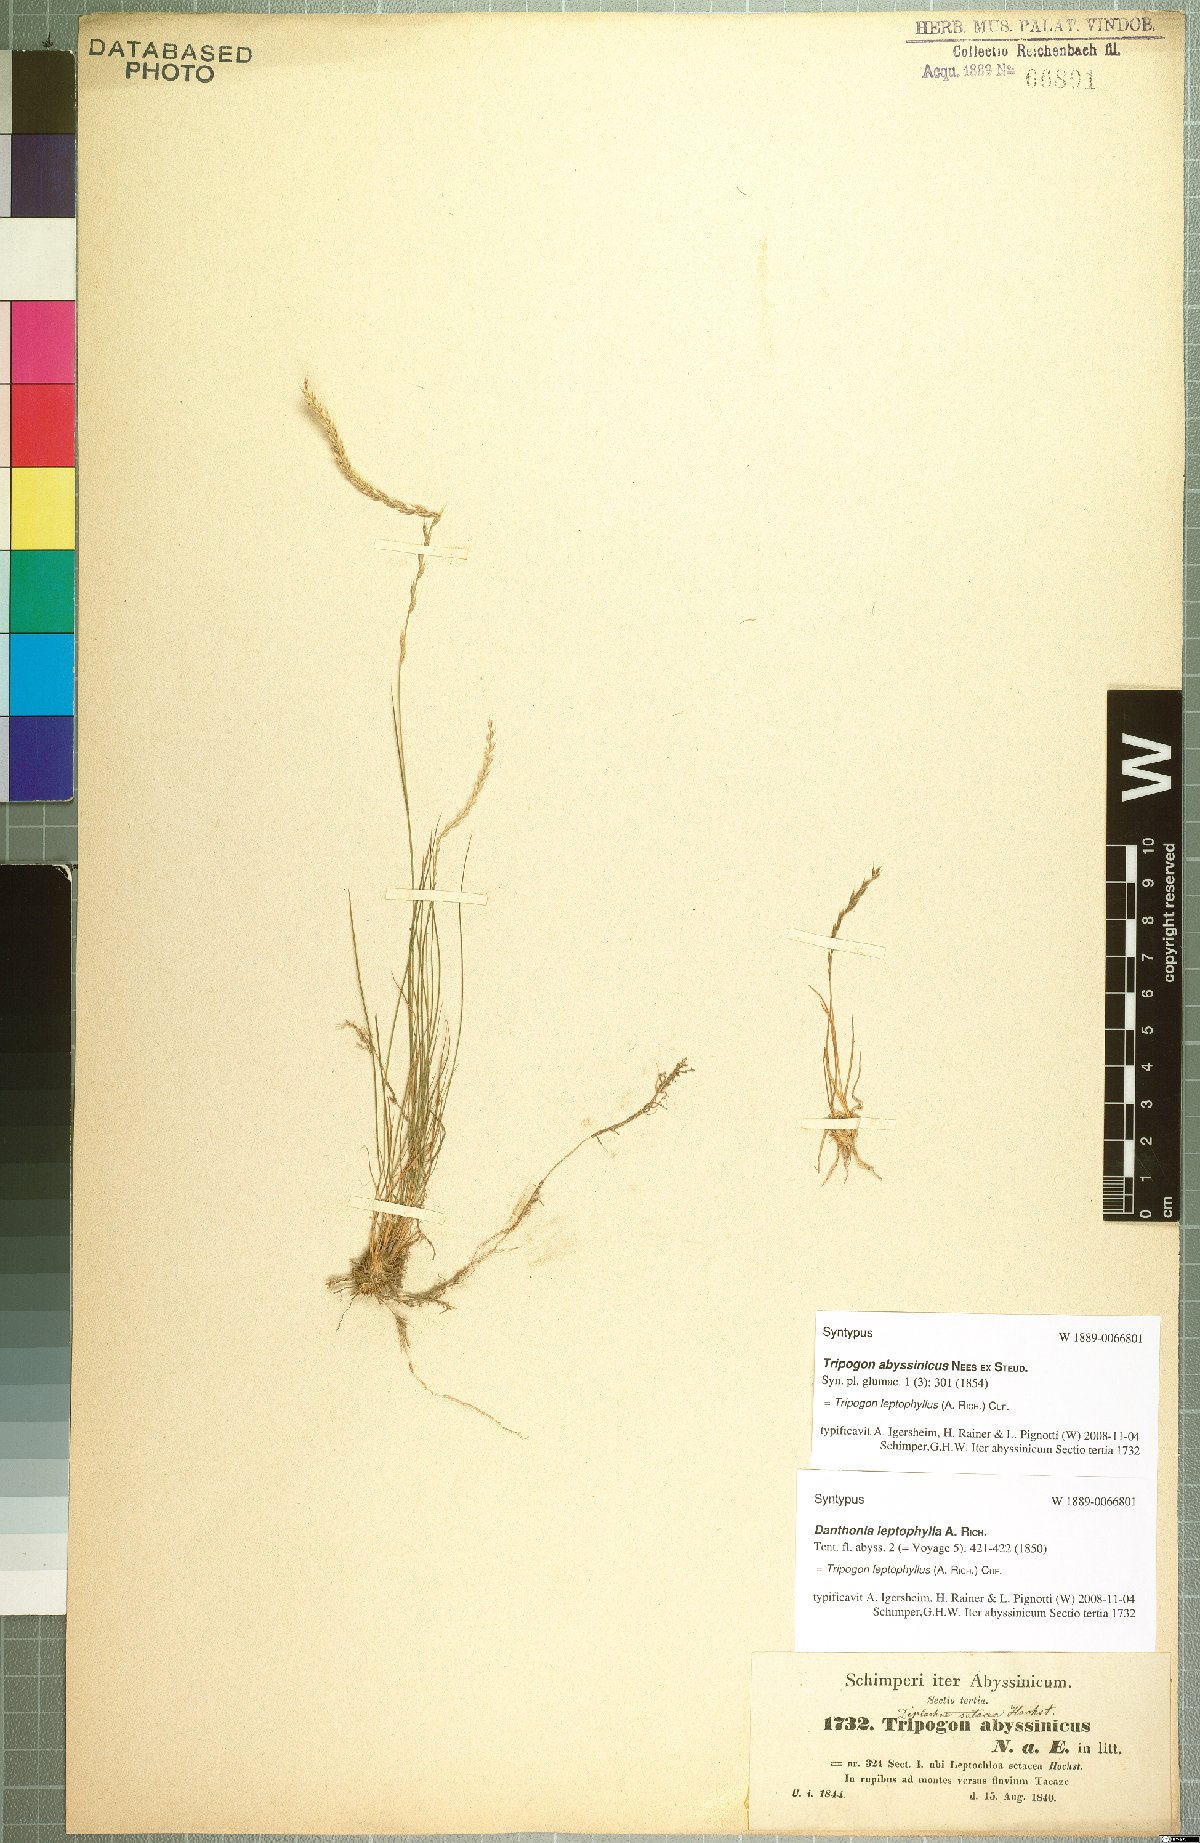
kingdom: Plantae
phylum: Tracheophyta
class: Liliopsida
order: Poales
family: Poaceae
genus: Tripogon
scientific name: Tripogon leptophyllus
